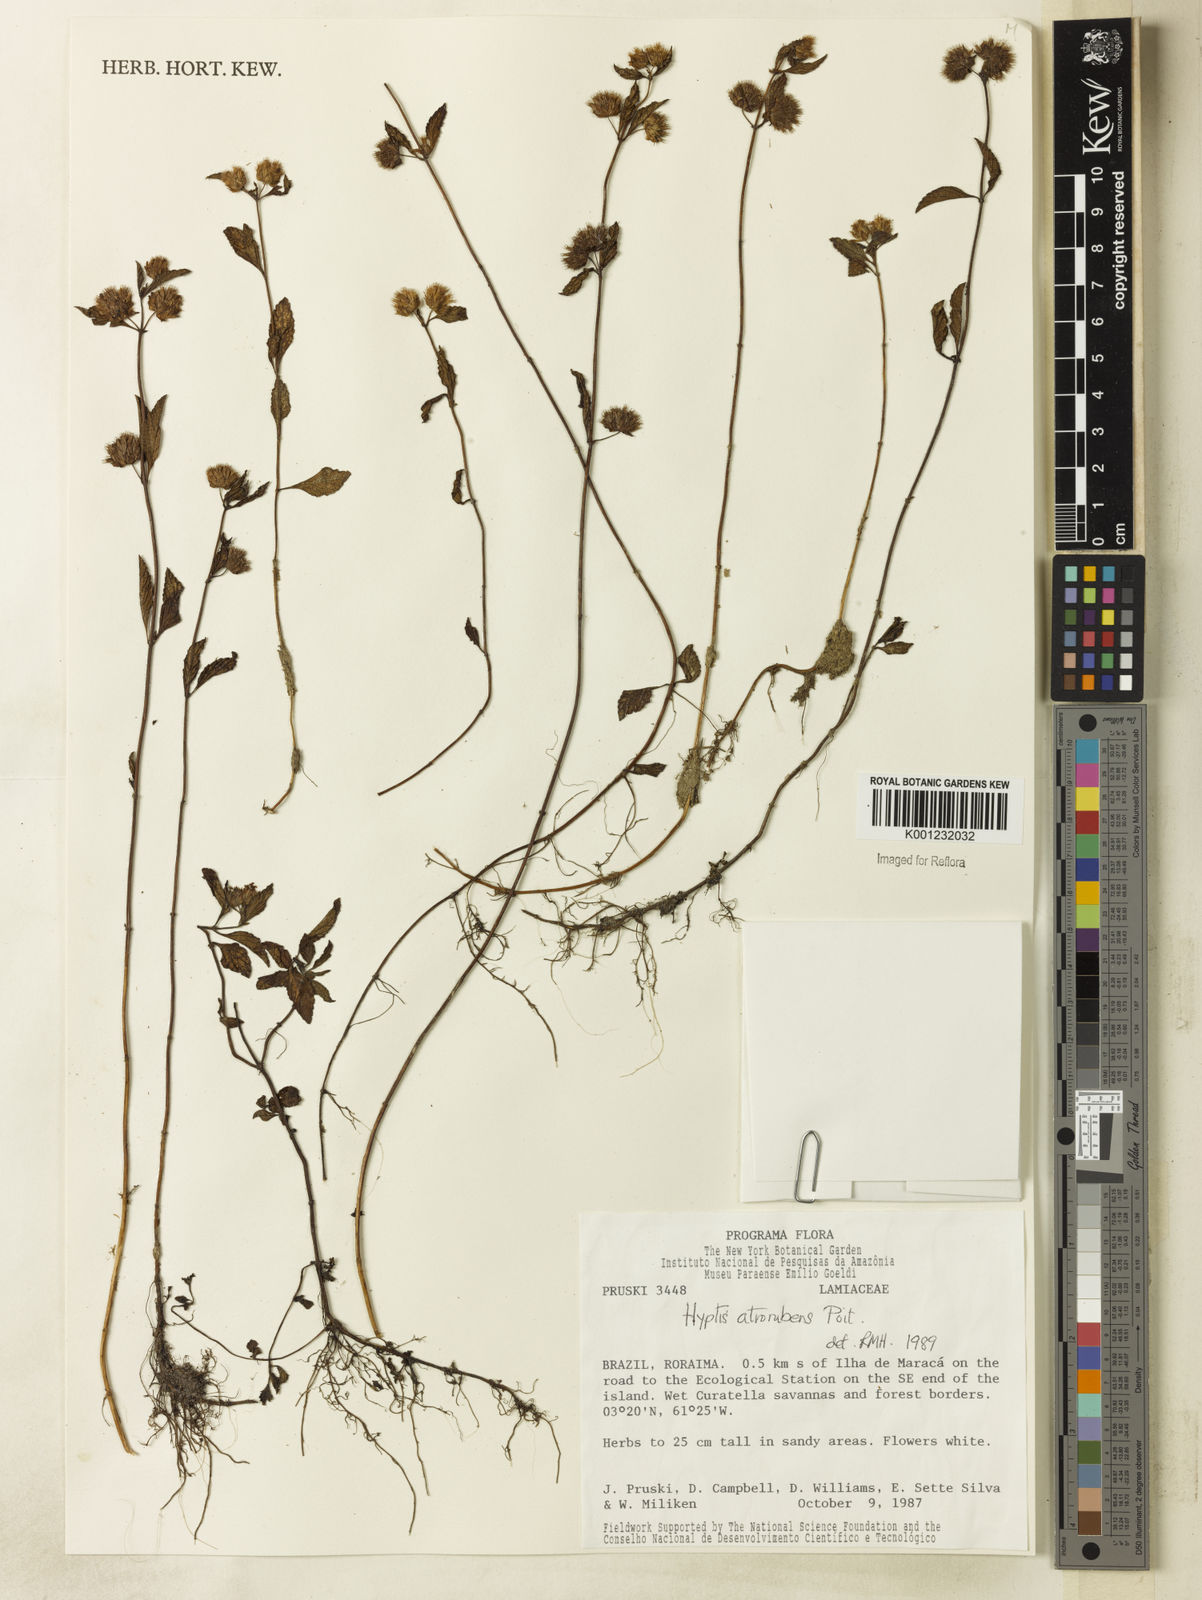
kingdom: Plantae
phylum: Tracheophyta
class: Magnoliopsida
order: Lamiales
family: Lamiaceae
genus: Hyptis
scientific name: Hyptis atrorubens
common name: Lanmant
